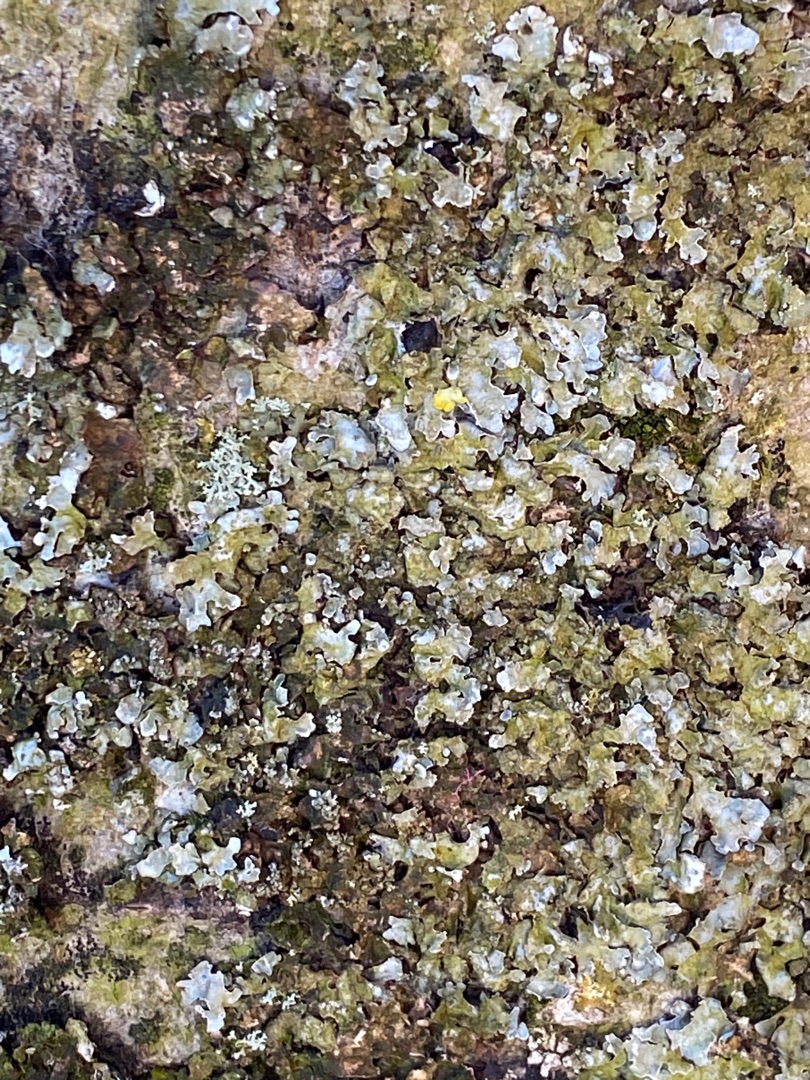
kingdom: Fungi
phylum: Ascomycota
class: Lecanoromycetes
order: Lecanorales
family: Parmeliaceae
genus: Parmelia
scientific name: Parmelia sulcata
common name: Rynket skållav
